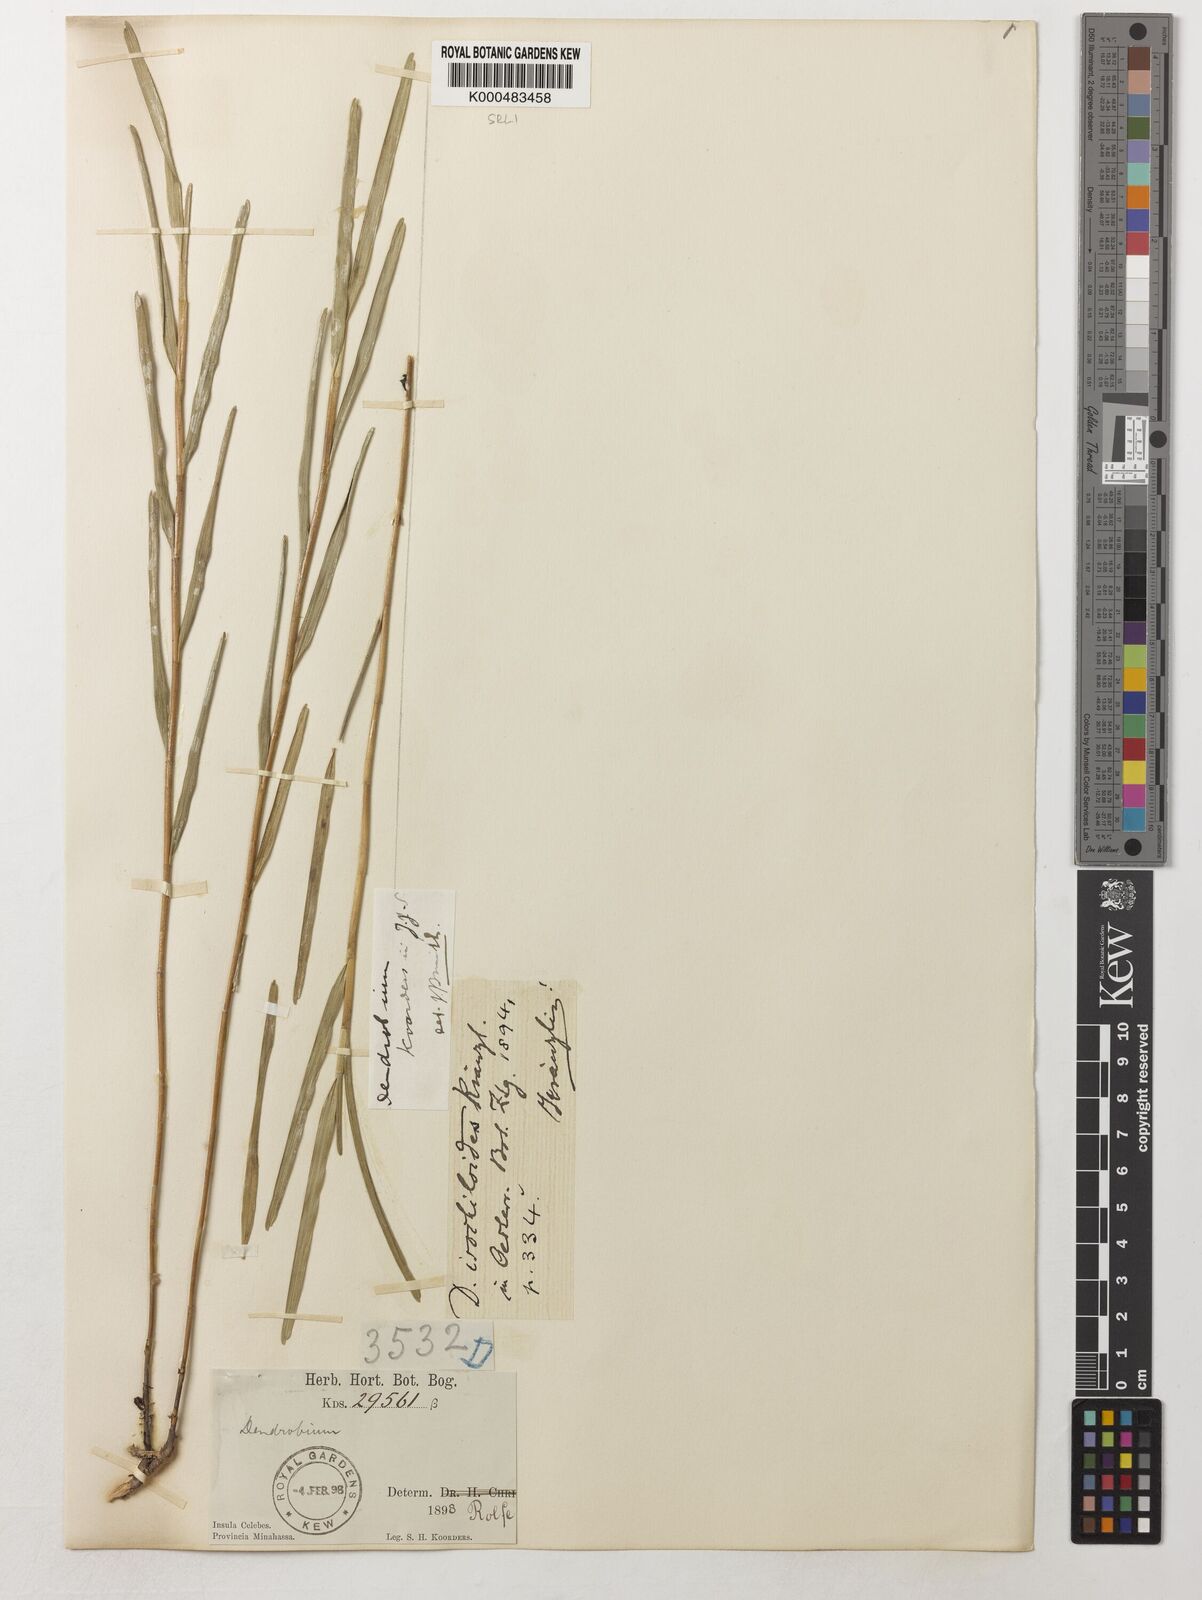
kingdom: Plantae
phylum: Tracheophyta
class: Liliopsida
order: Asparagales
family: Orchidaceae
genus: Dendrobium
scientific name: Dendrobium isochiloides
